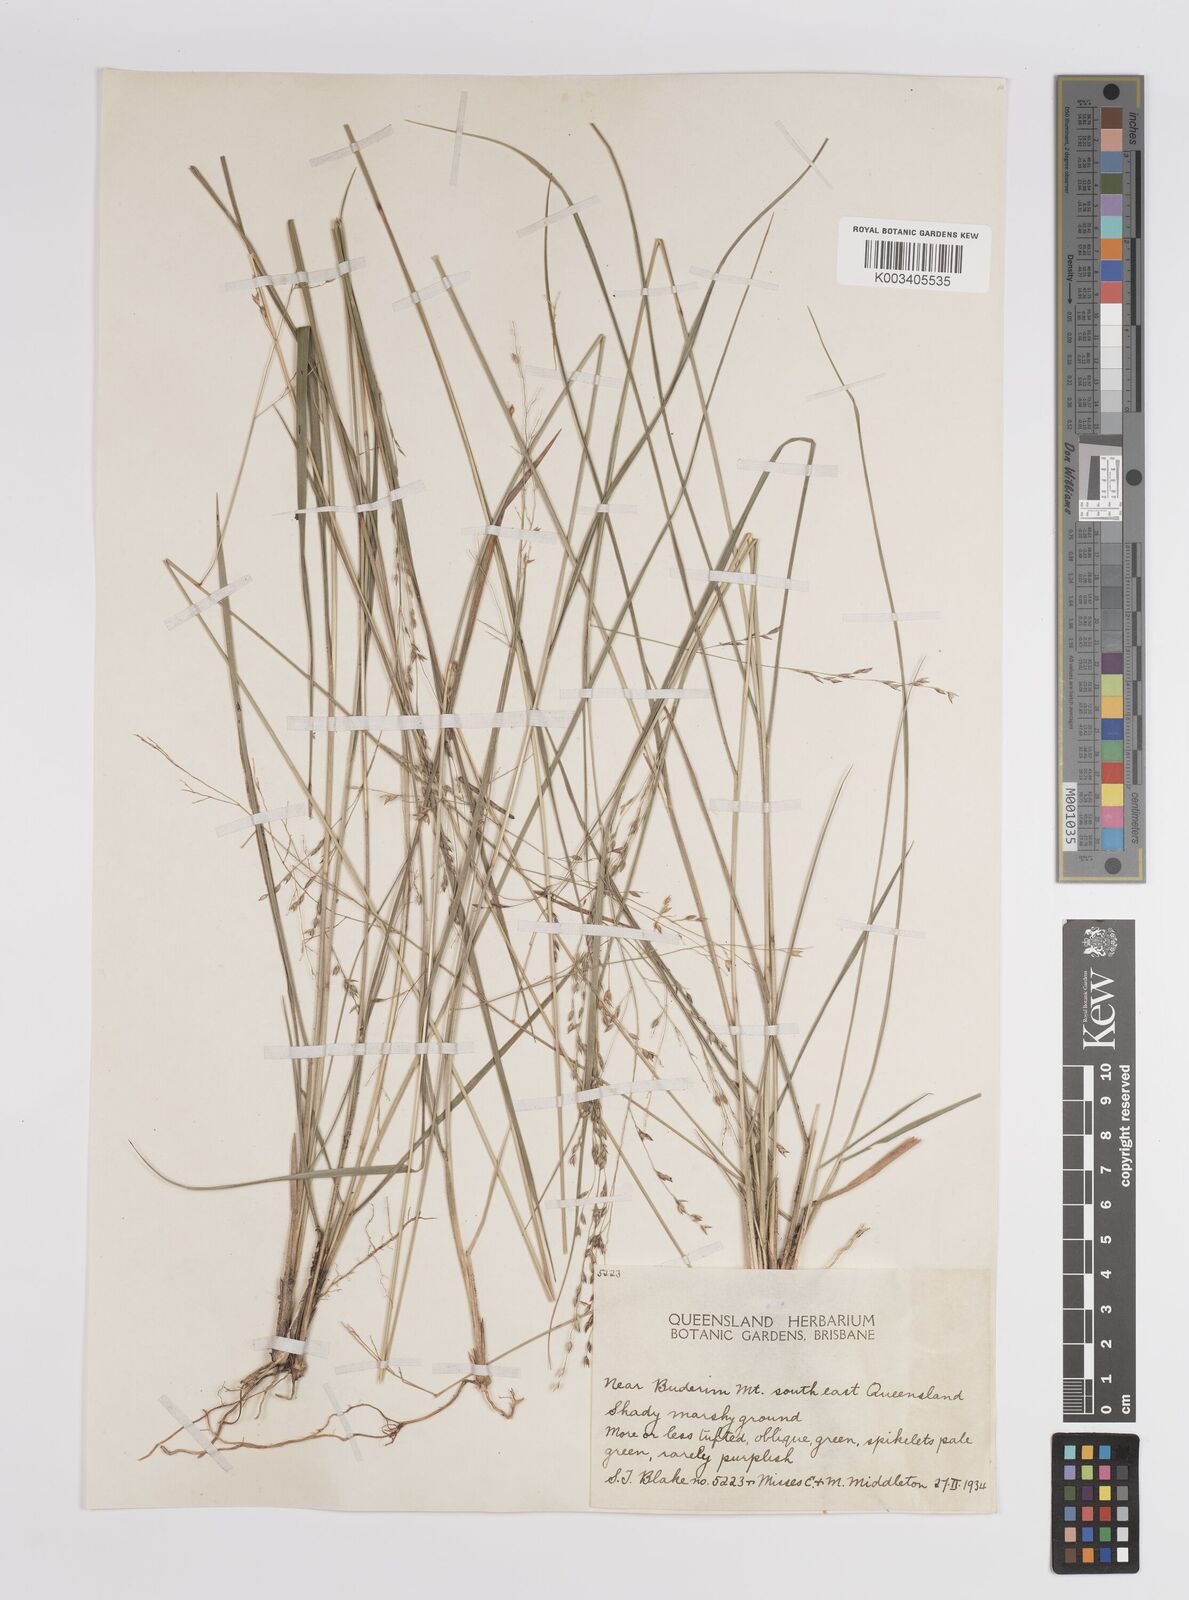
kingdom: Plantae
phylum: Tracheophyta
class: Liliopsida
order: Poales
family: Poaceae
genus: Panicum
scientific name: Panicum
